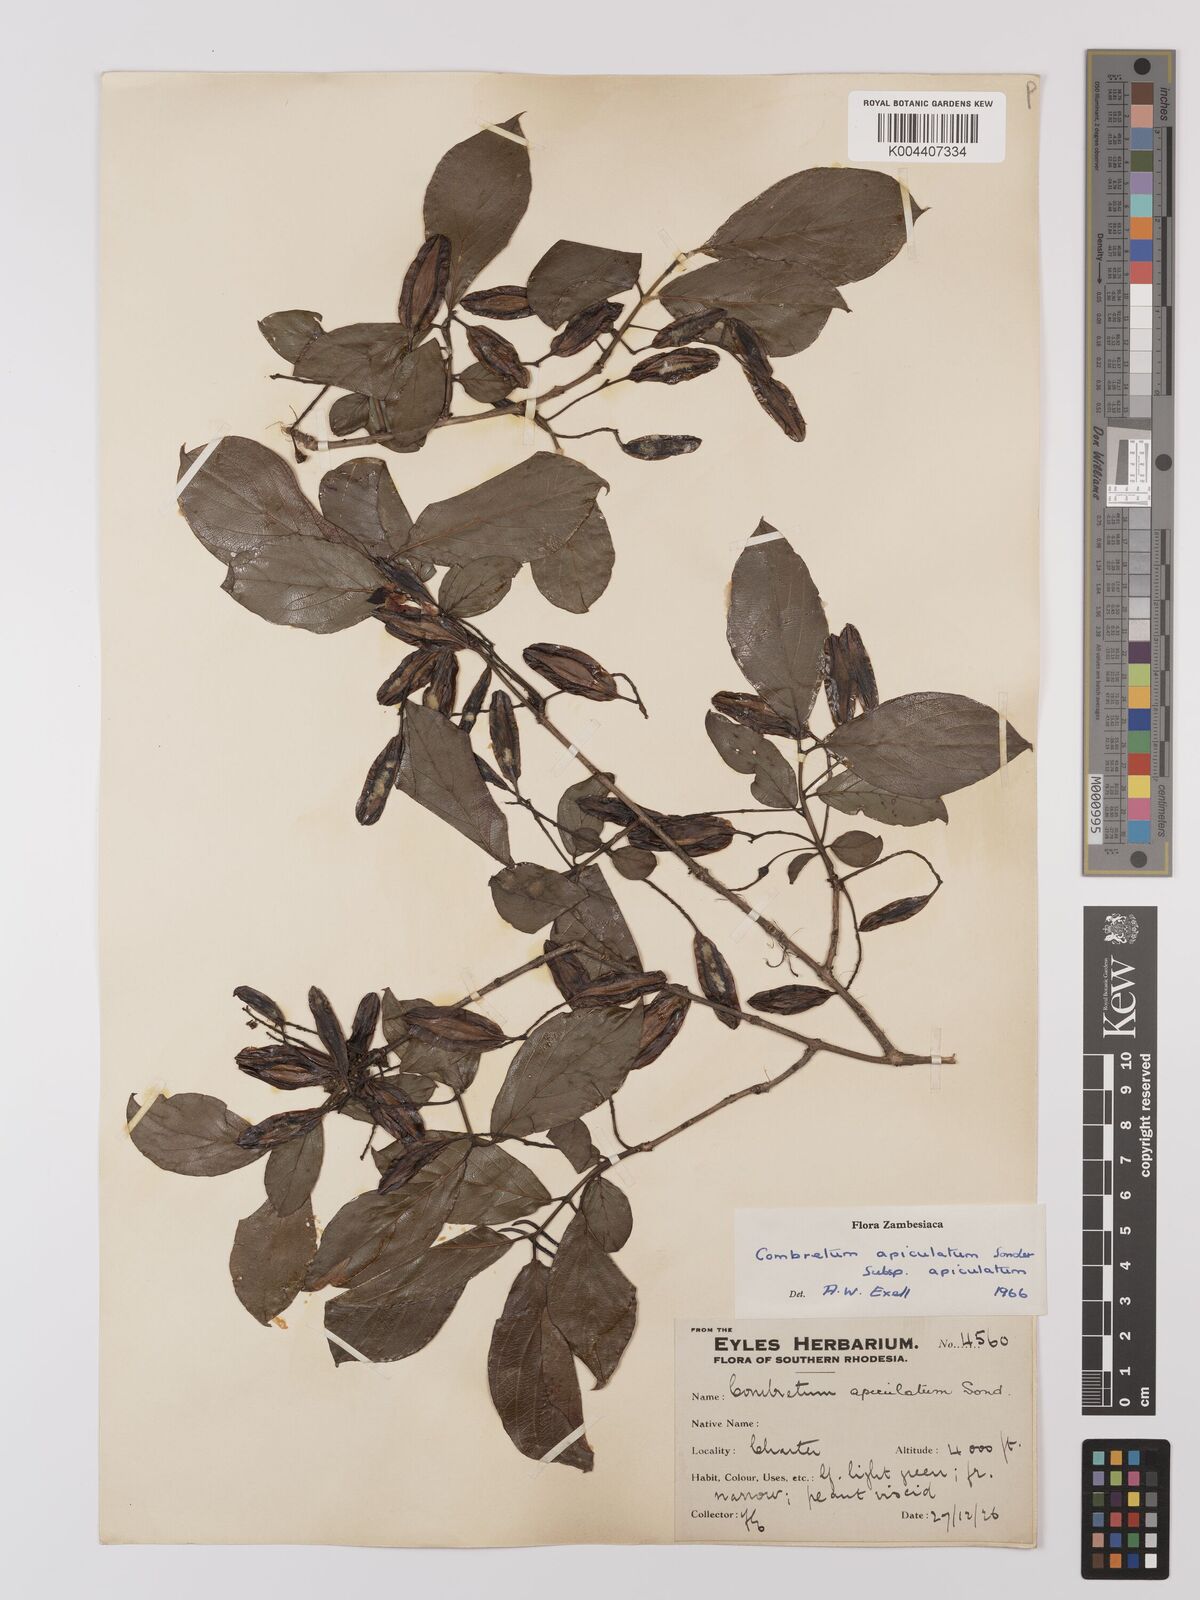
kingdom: Plantae
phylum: Tracheophyta
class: Magnoliopsida
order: Myrtales
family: Combretaceae
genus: Combretum
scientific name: Combretum apiculatum
